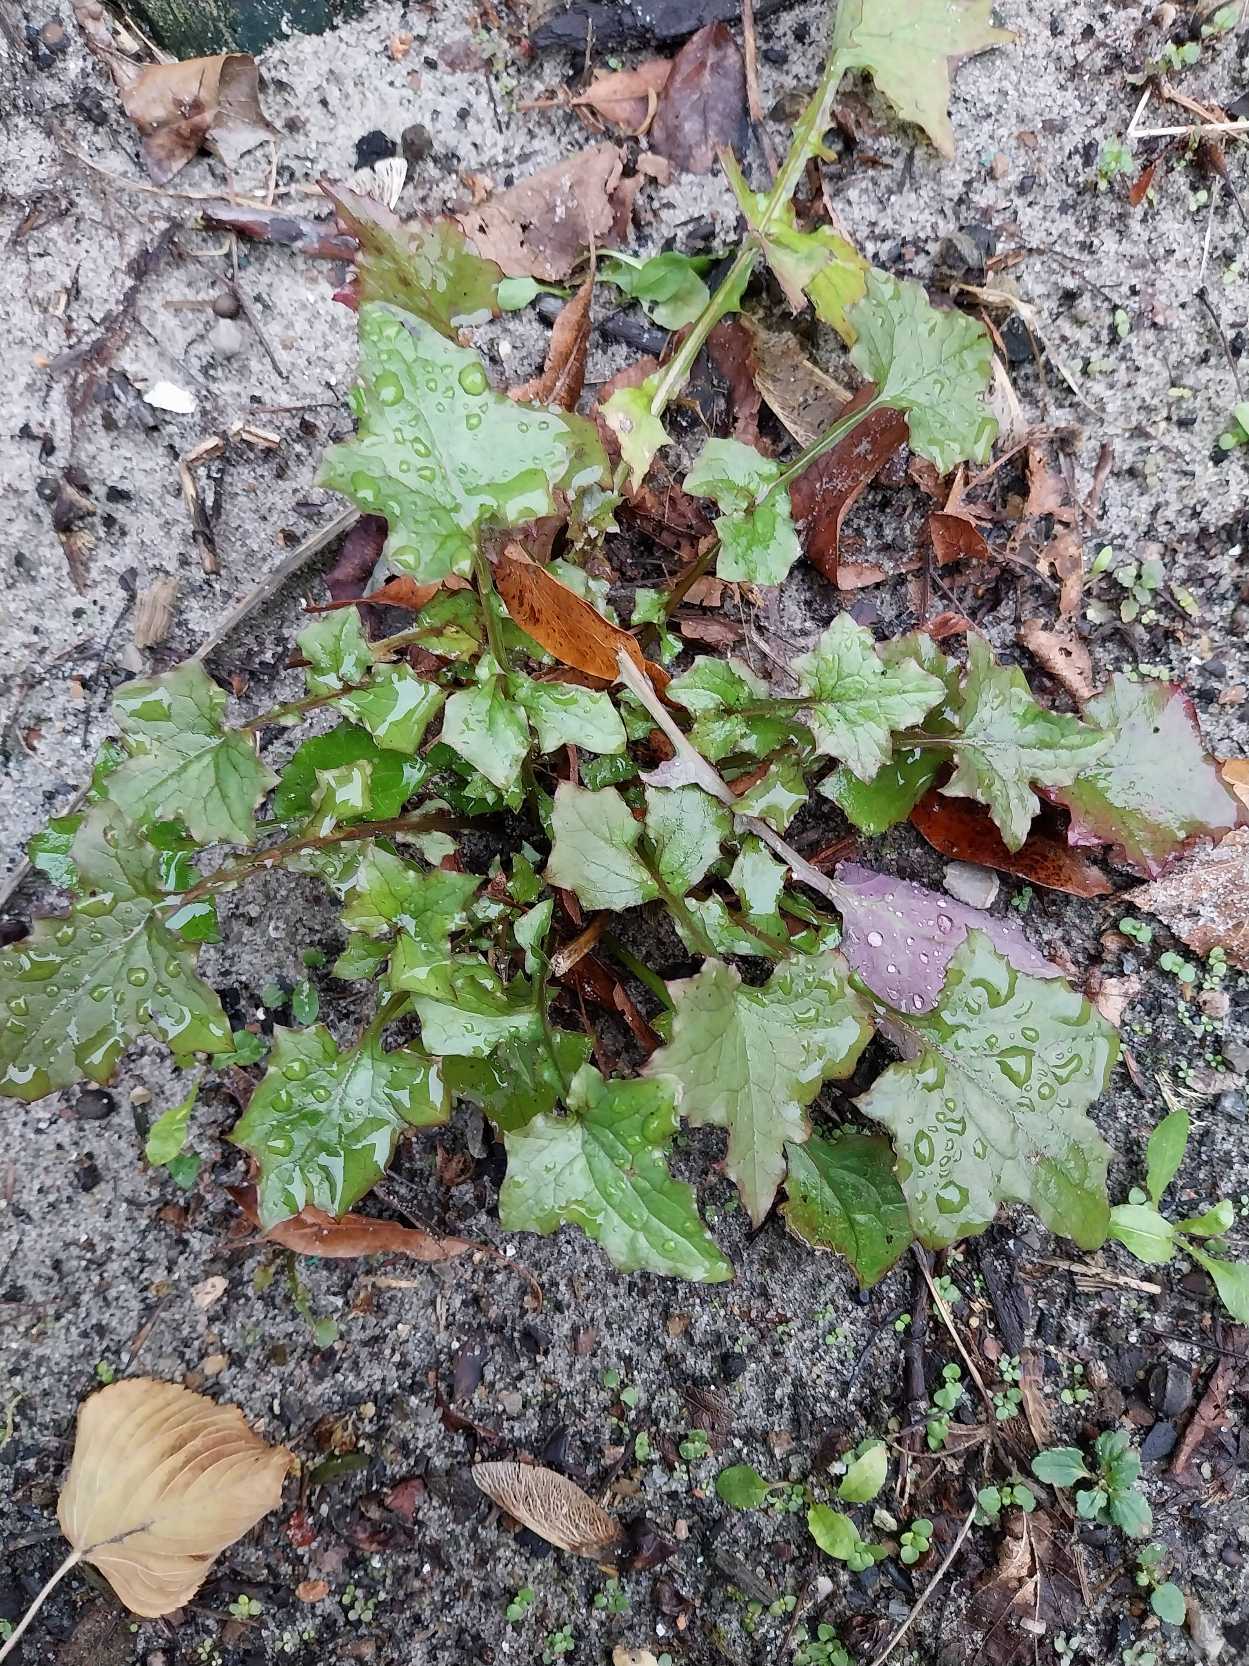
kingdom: Plantae
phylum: Tracheophyta
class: Magnoliopsida
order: Asterales
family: Asteraceae
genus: Mycelis
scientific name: Mycelis muralis
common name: Skov-salat
